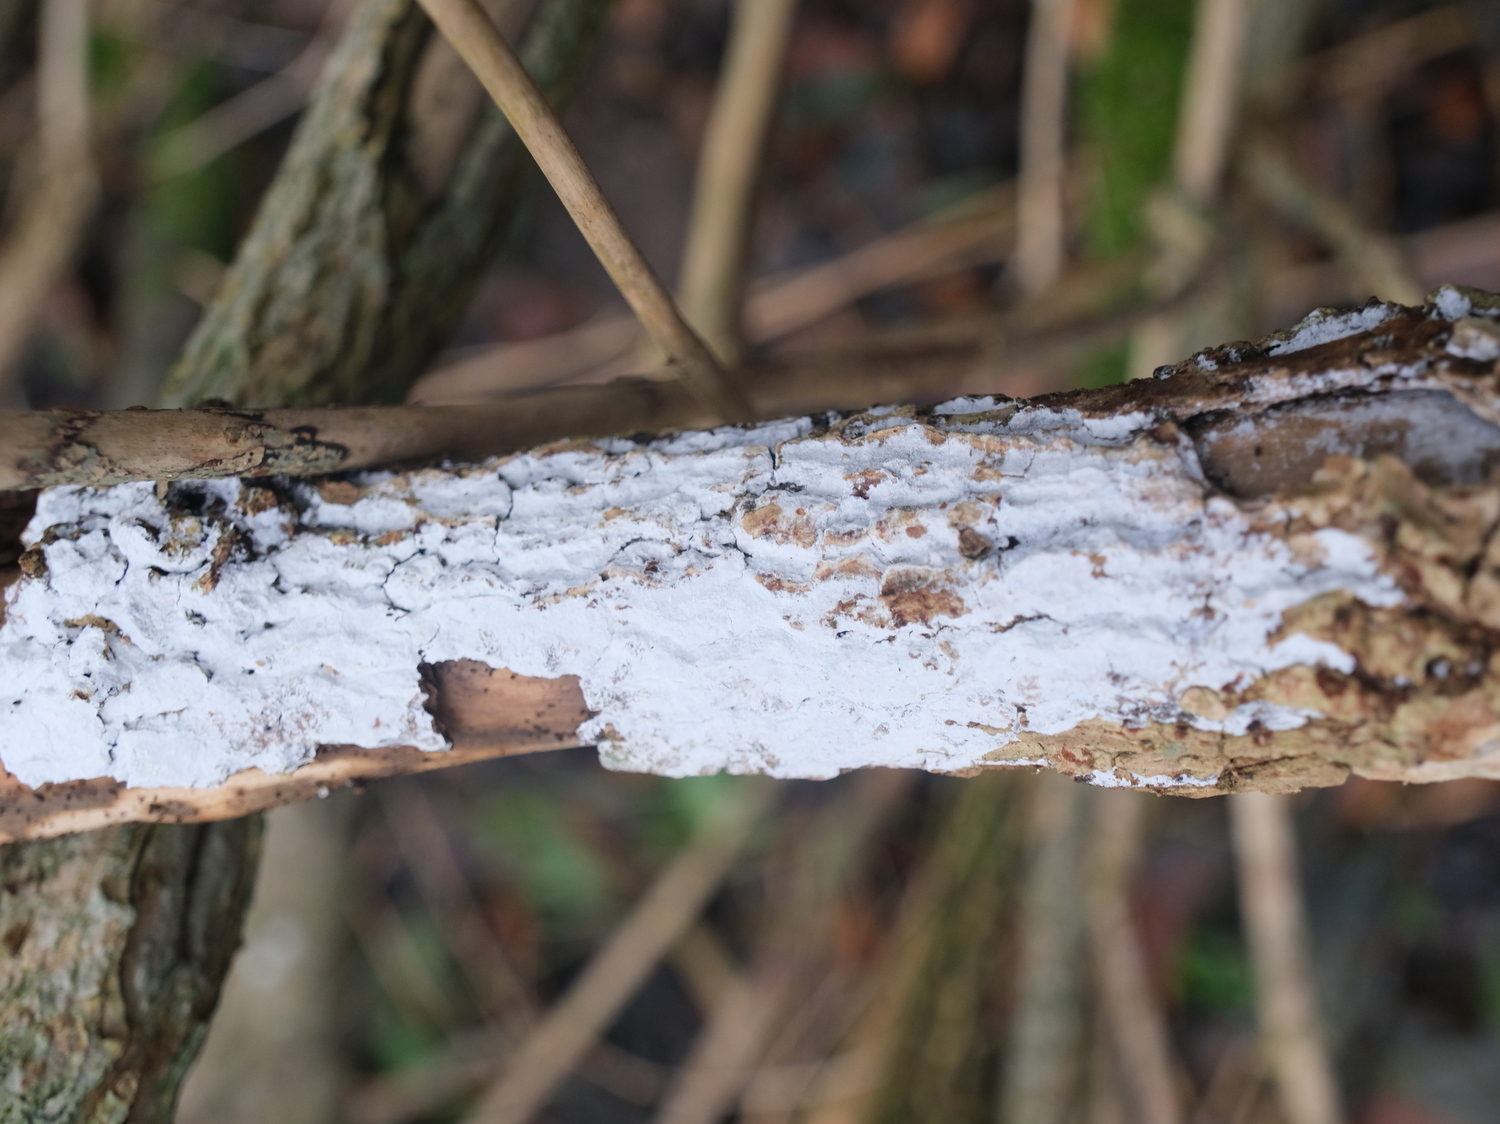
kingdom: Fungi
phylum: Basidiomycota
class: Agaricomycetes
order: Corticiales
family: Corticiaceae
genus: Lyomyces
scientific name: Lyomyces sambuci
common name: almindelig hyldehinde
